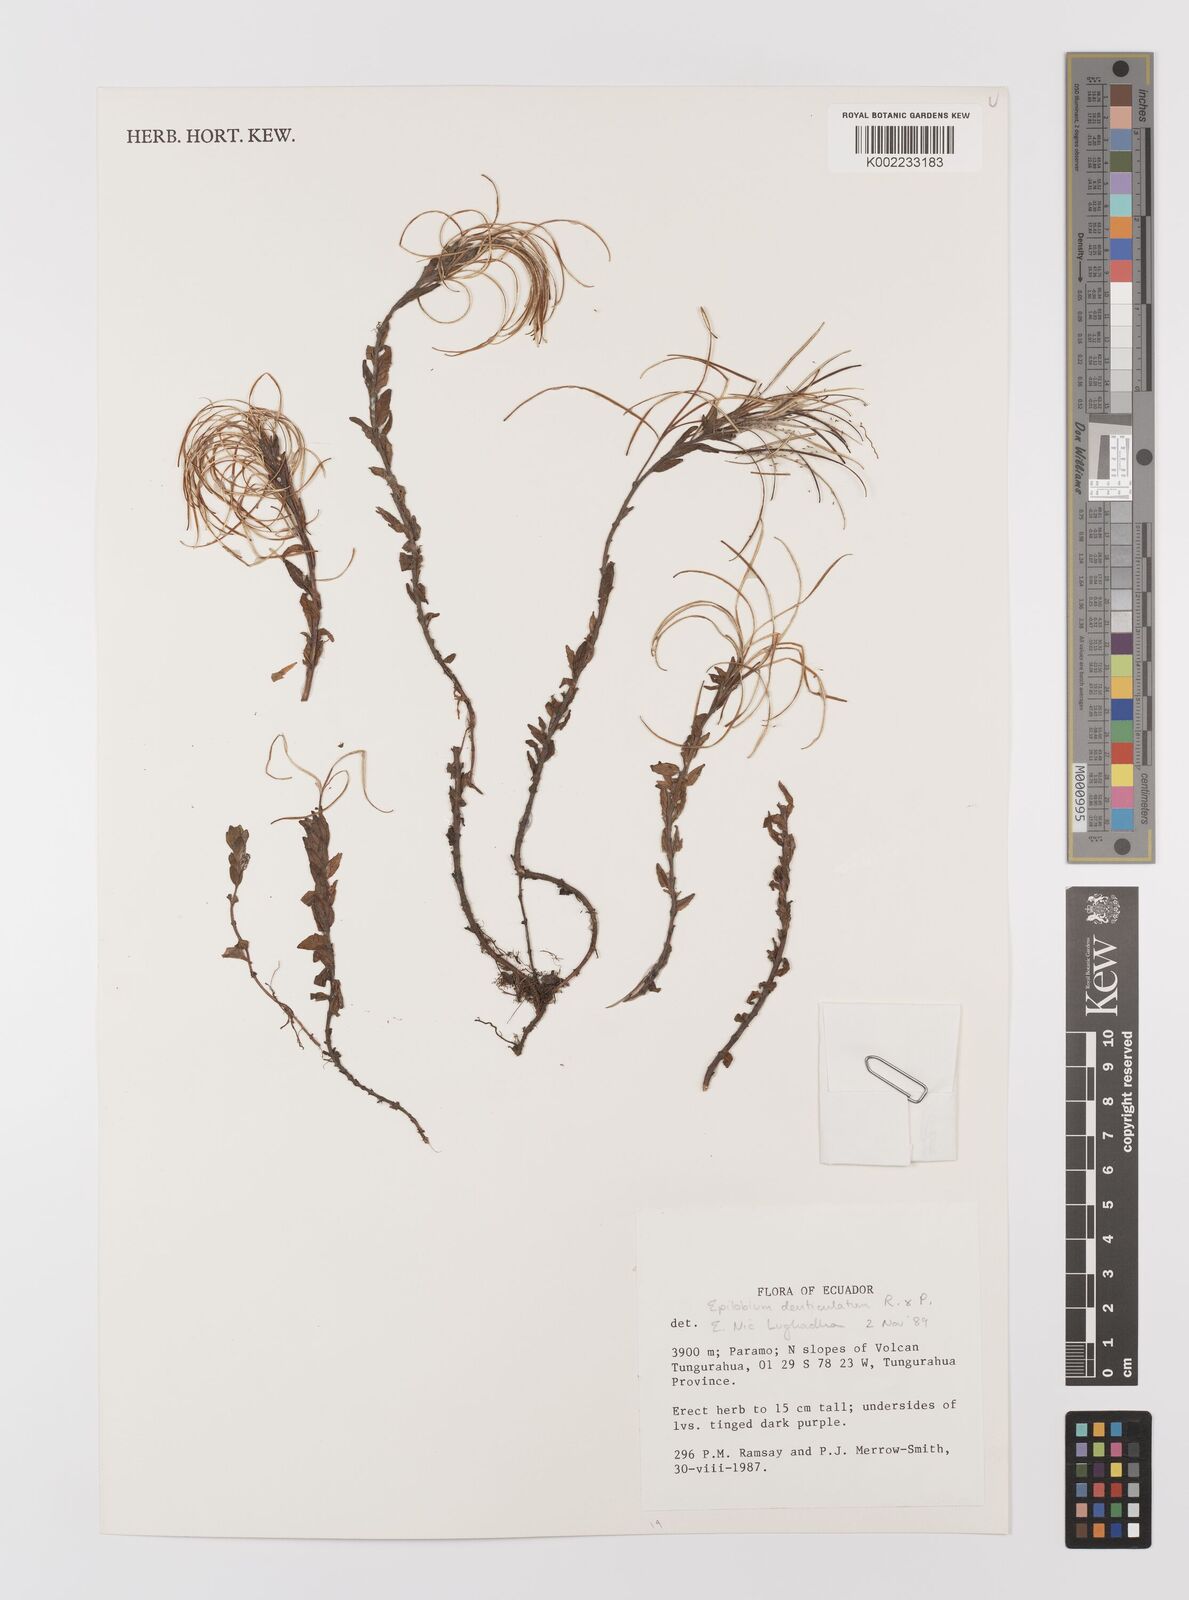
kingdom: Plantae
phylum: Tracheophyta
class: Magnoliopsida
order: Myrtales
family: Onagraceae
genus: Epilobium
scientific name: Epilobium denticulatum
